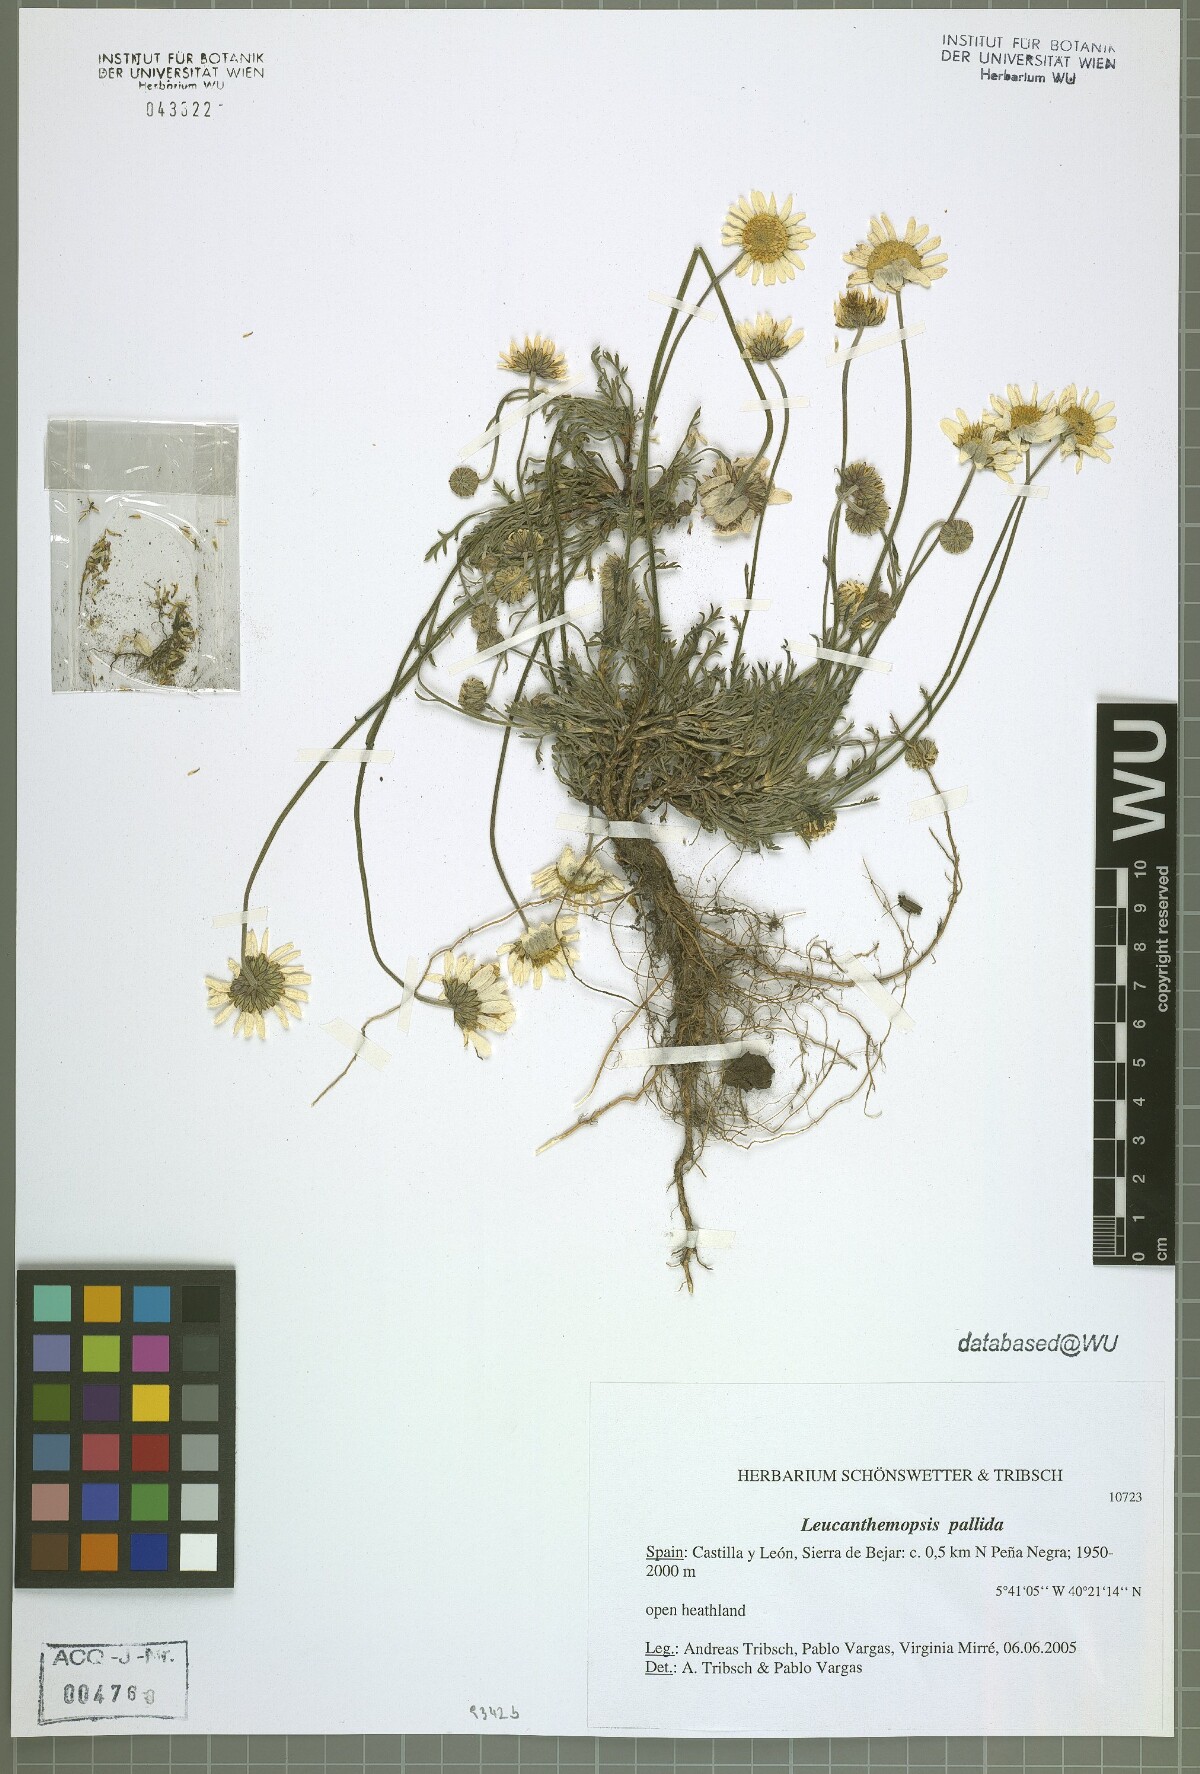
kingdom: Plantae
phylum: Tracheophyta
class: Magnoliopsida
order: Asterales
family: Asteraceae
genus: Leucanthemopsis
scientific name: Leucanthemopsis pallida
